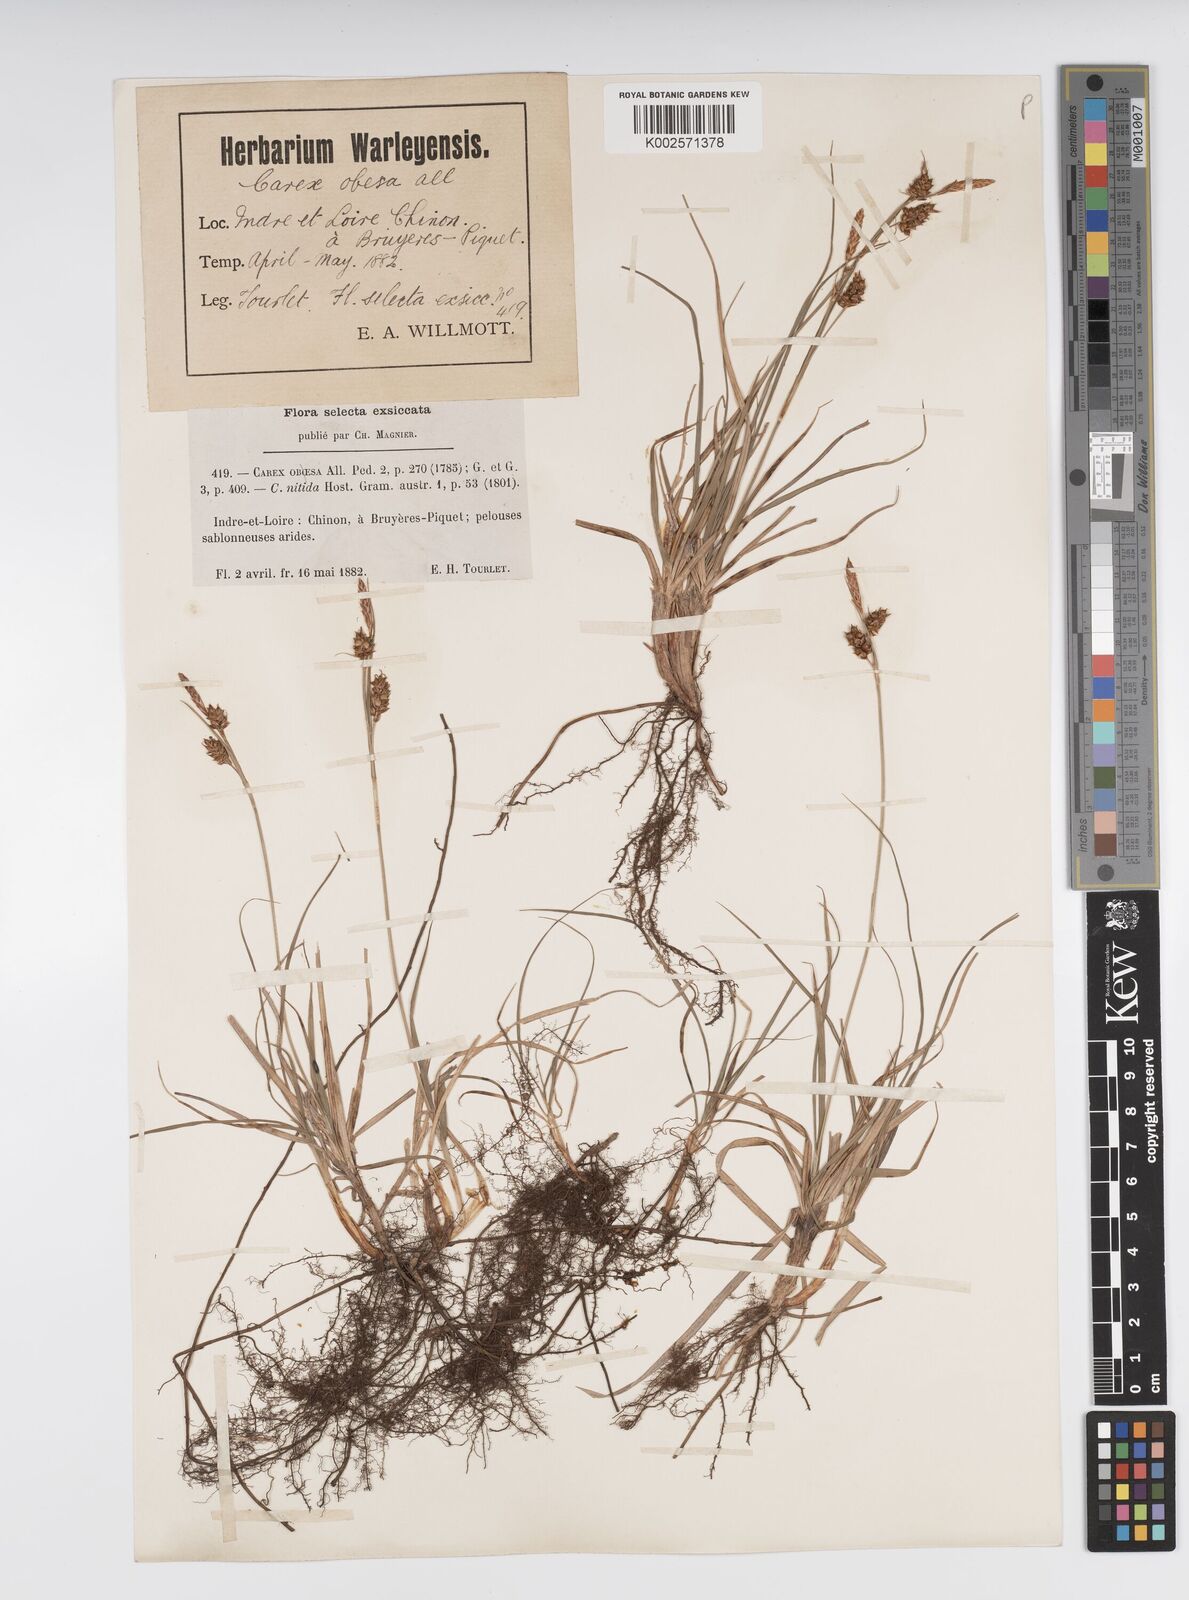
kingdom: Plantae
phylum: Tracheophyta
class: Liliopsida
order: Poales
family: Cyperaceae
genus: Carex
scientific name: Carex liparocarpos
